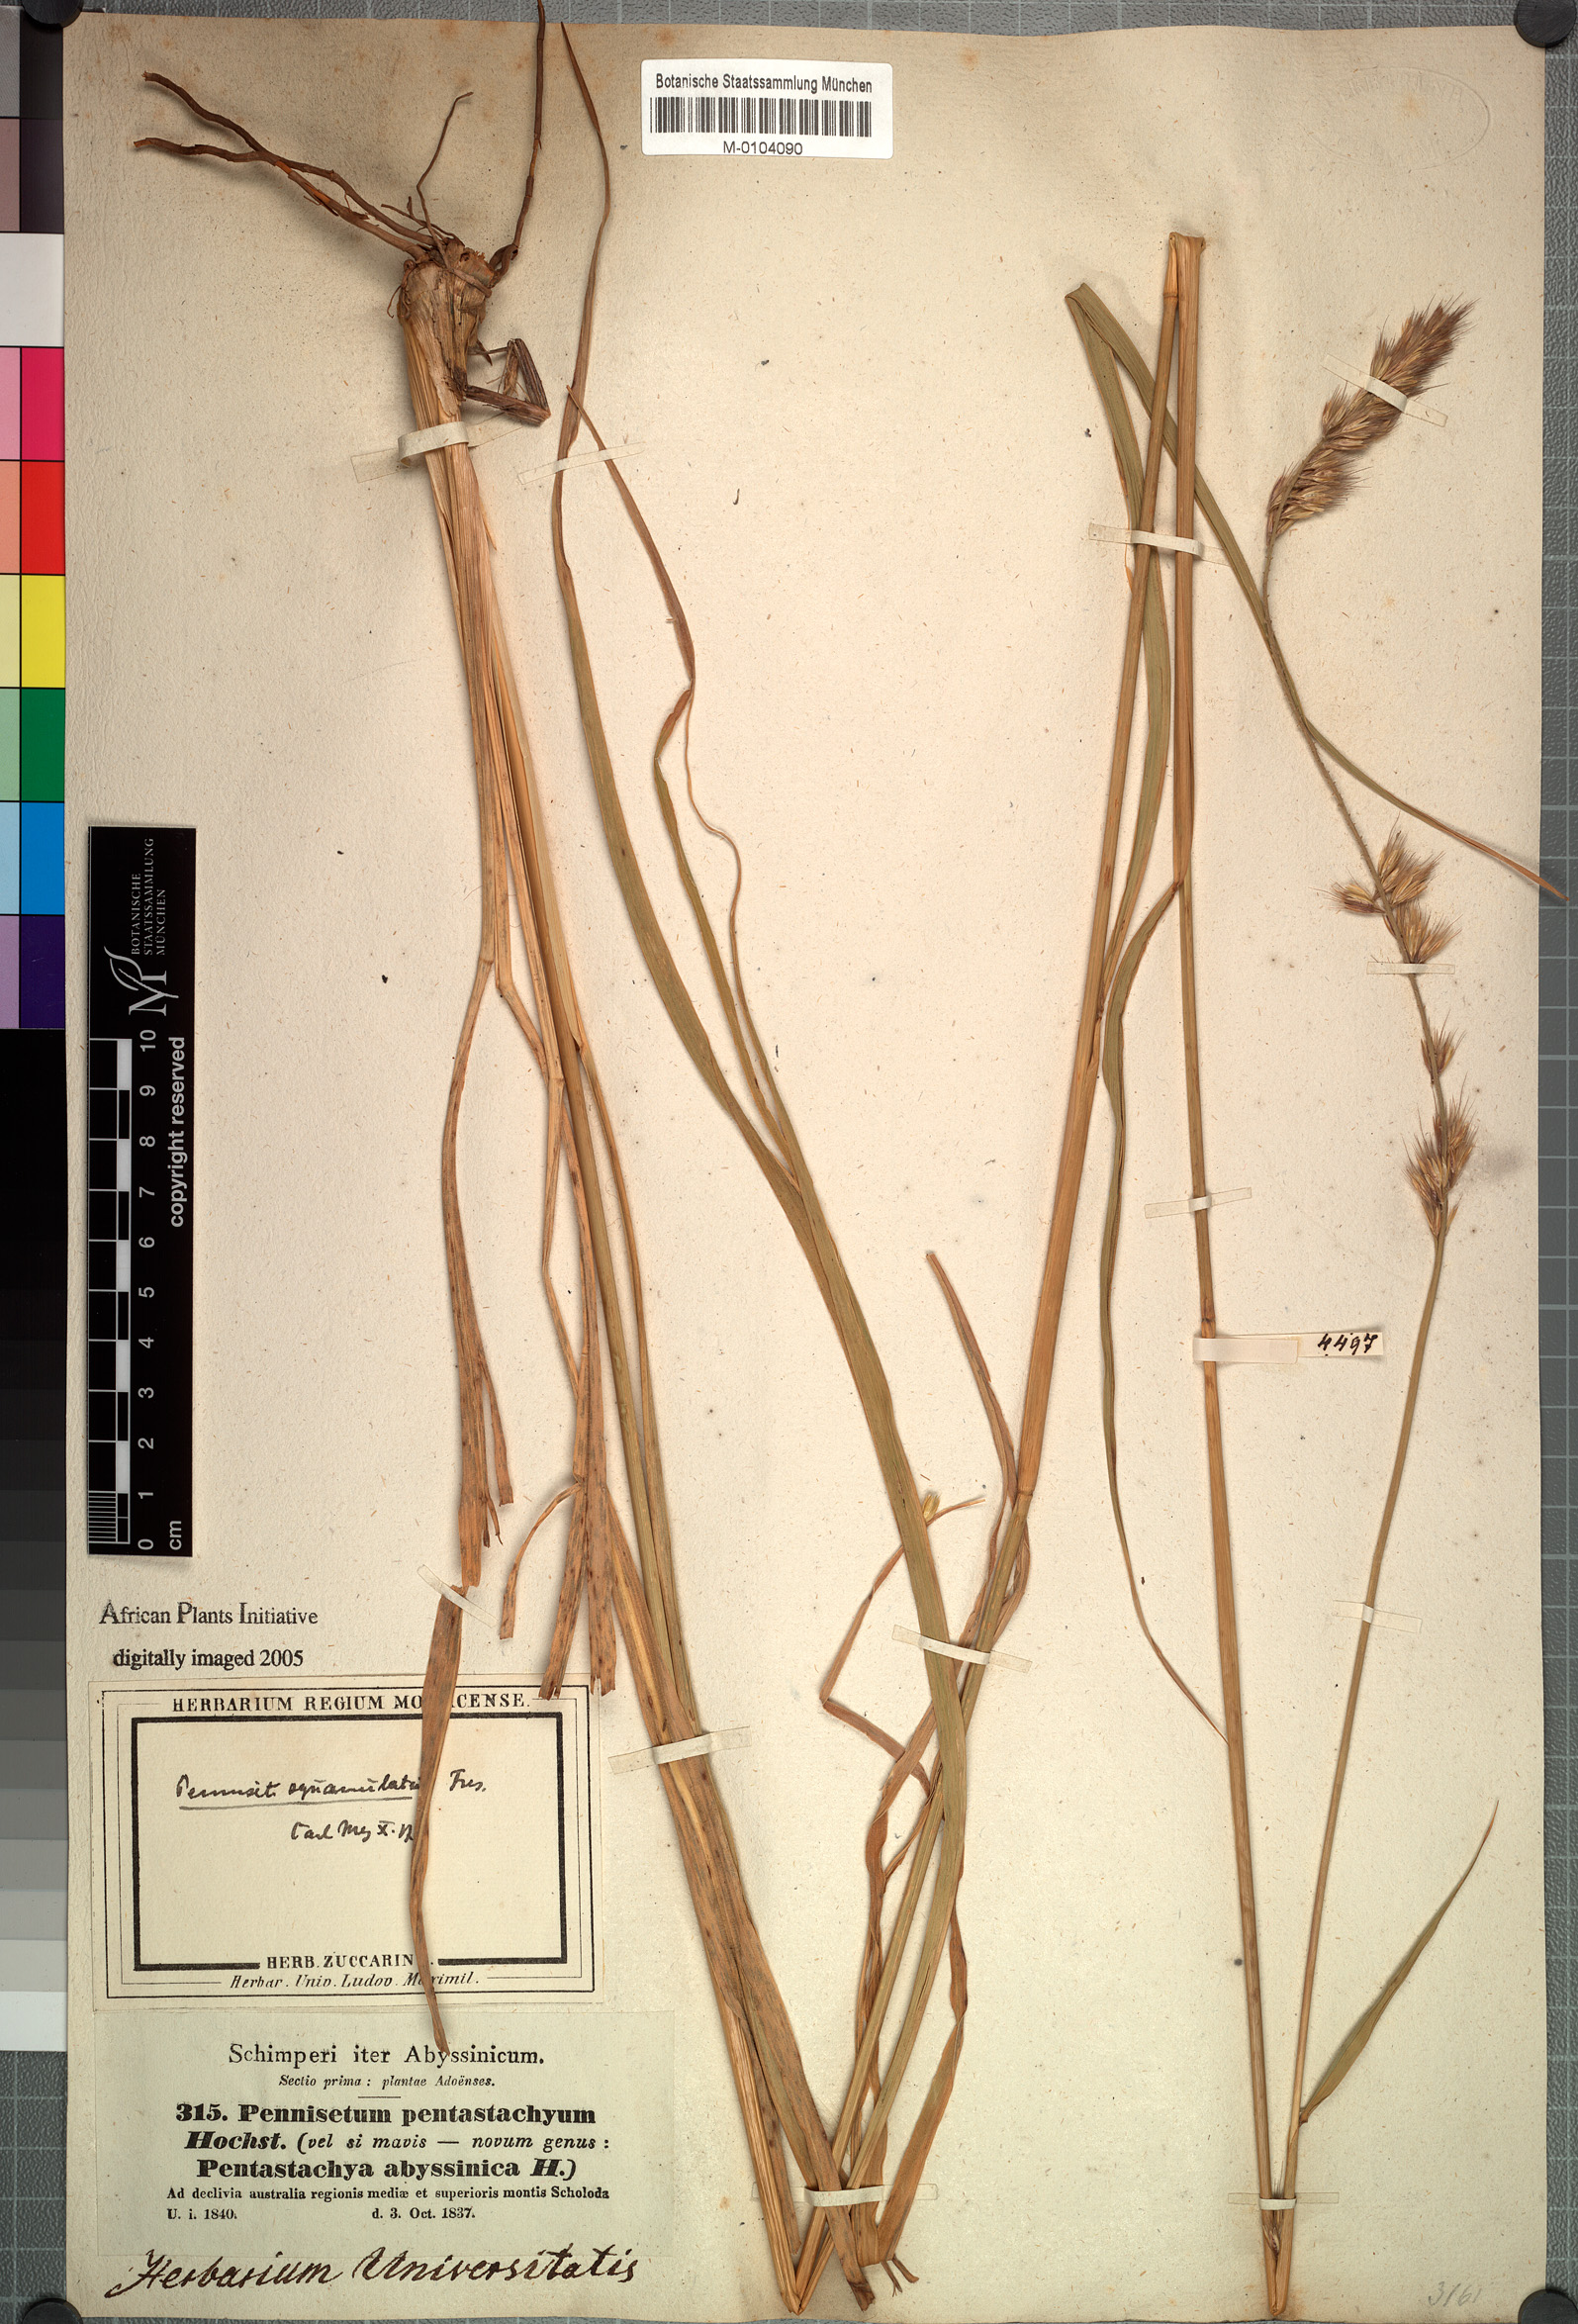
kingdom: Plantae
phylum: Tracheophyta
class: Liliopsida
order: Poales
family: Poaceae
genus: Cenchrus
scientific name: Cenchrus squamulatus
